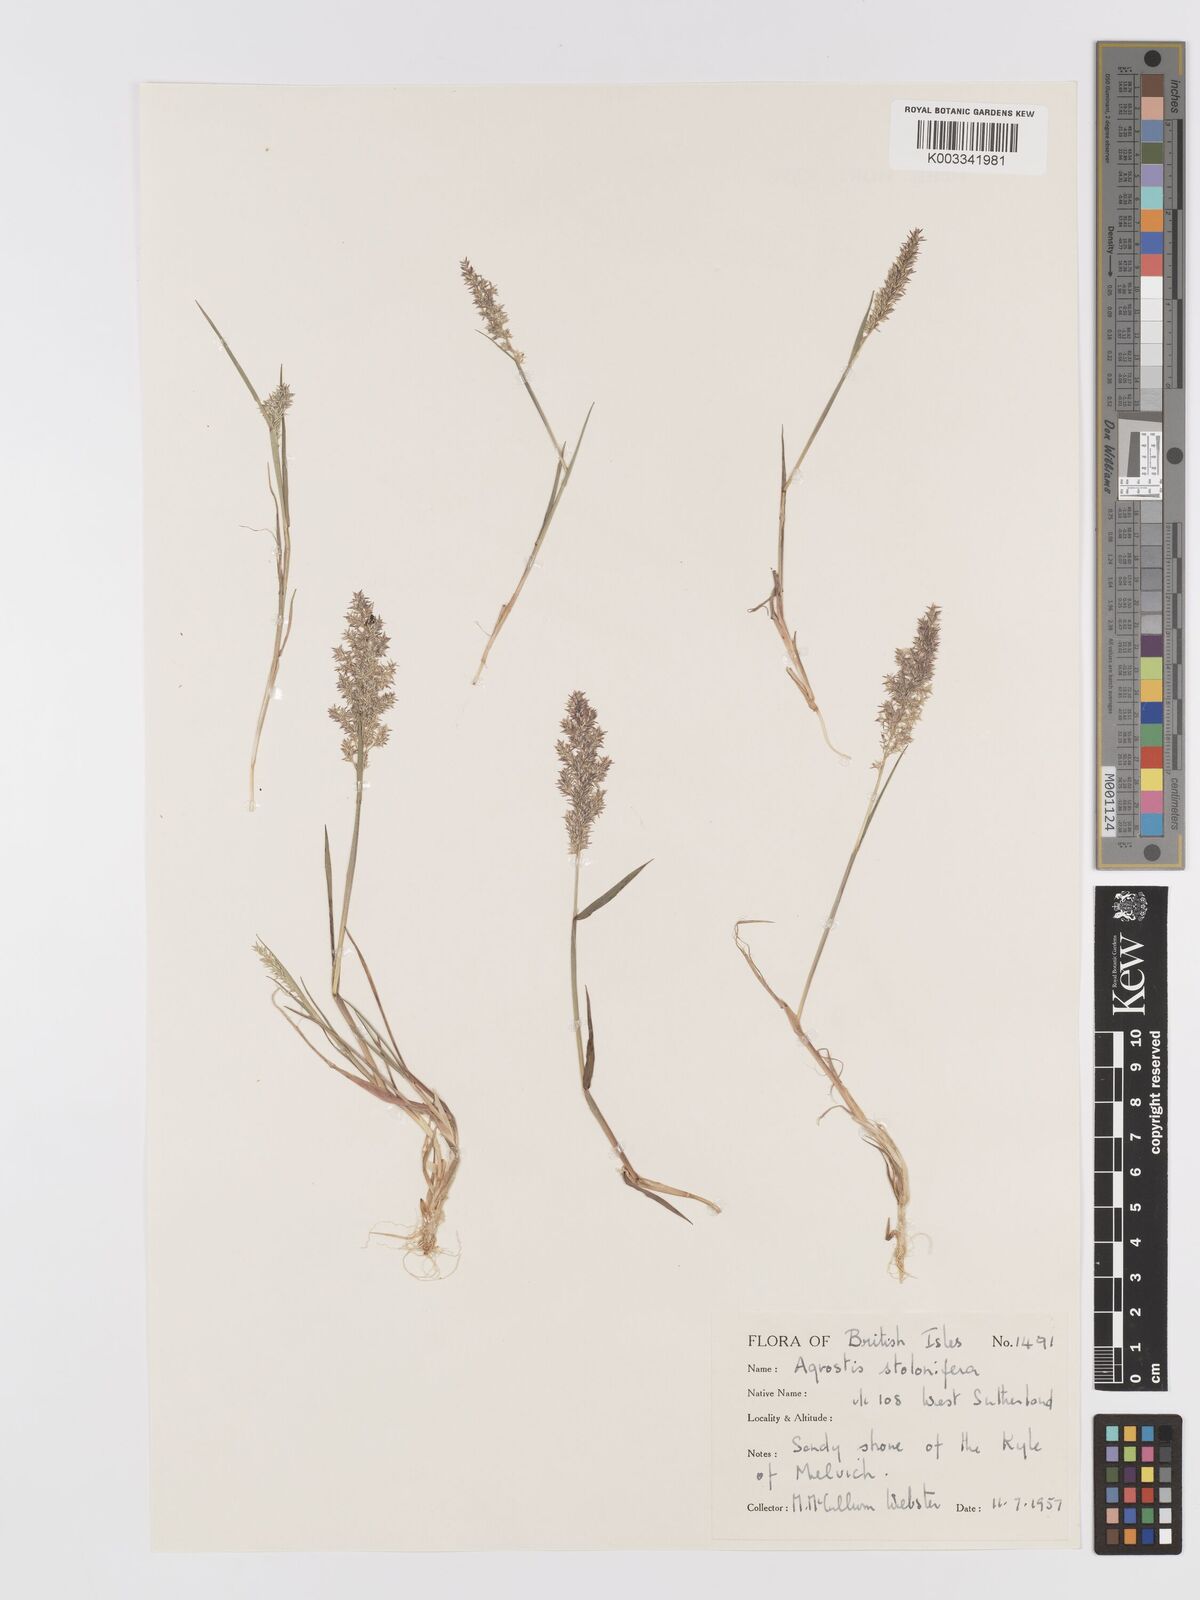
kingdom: Plantae
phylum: Tracheophyta
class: Liliopsida
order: Poales
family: Poaceae
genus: Agrostis
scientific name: Agrostis stolonifera
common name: Creeping bentgrass
